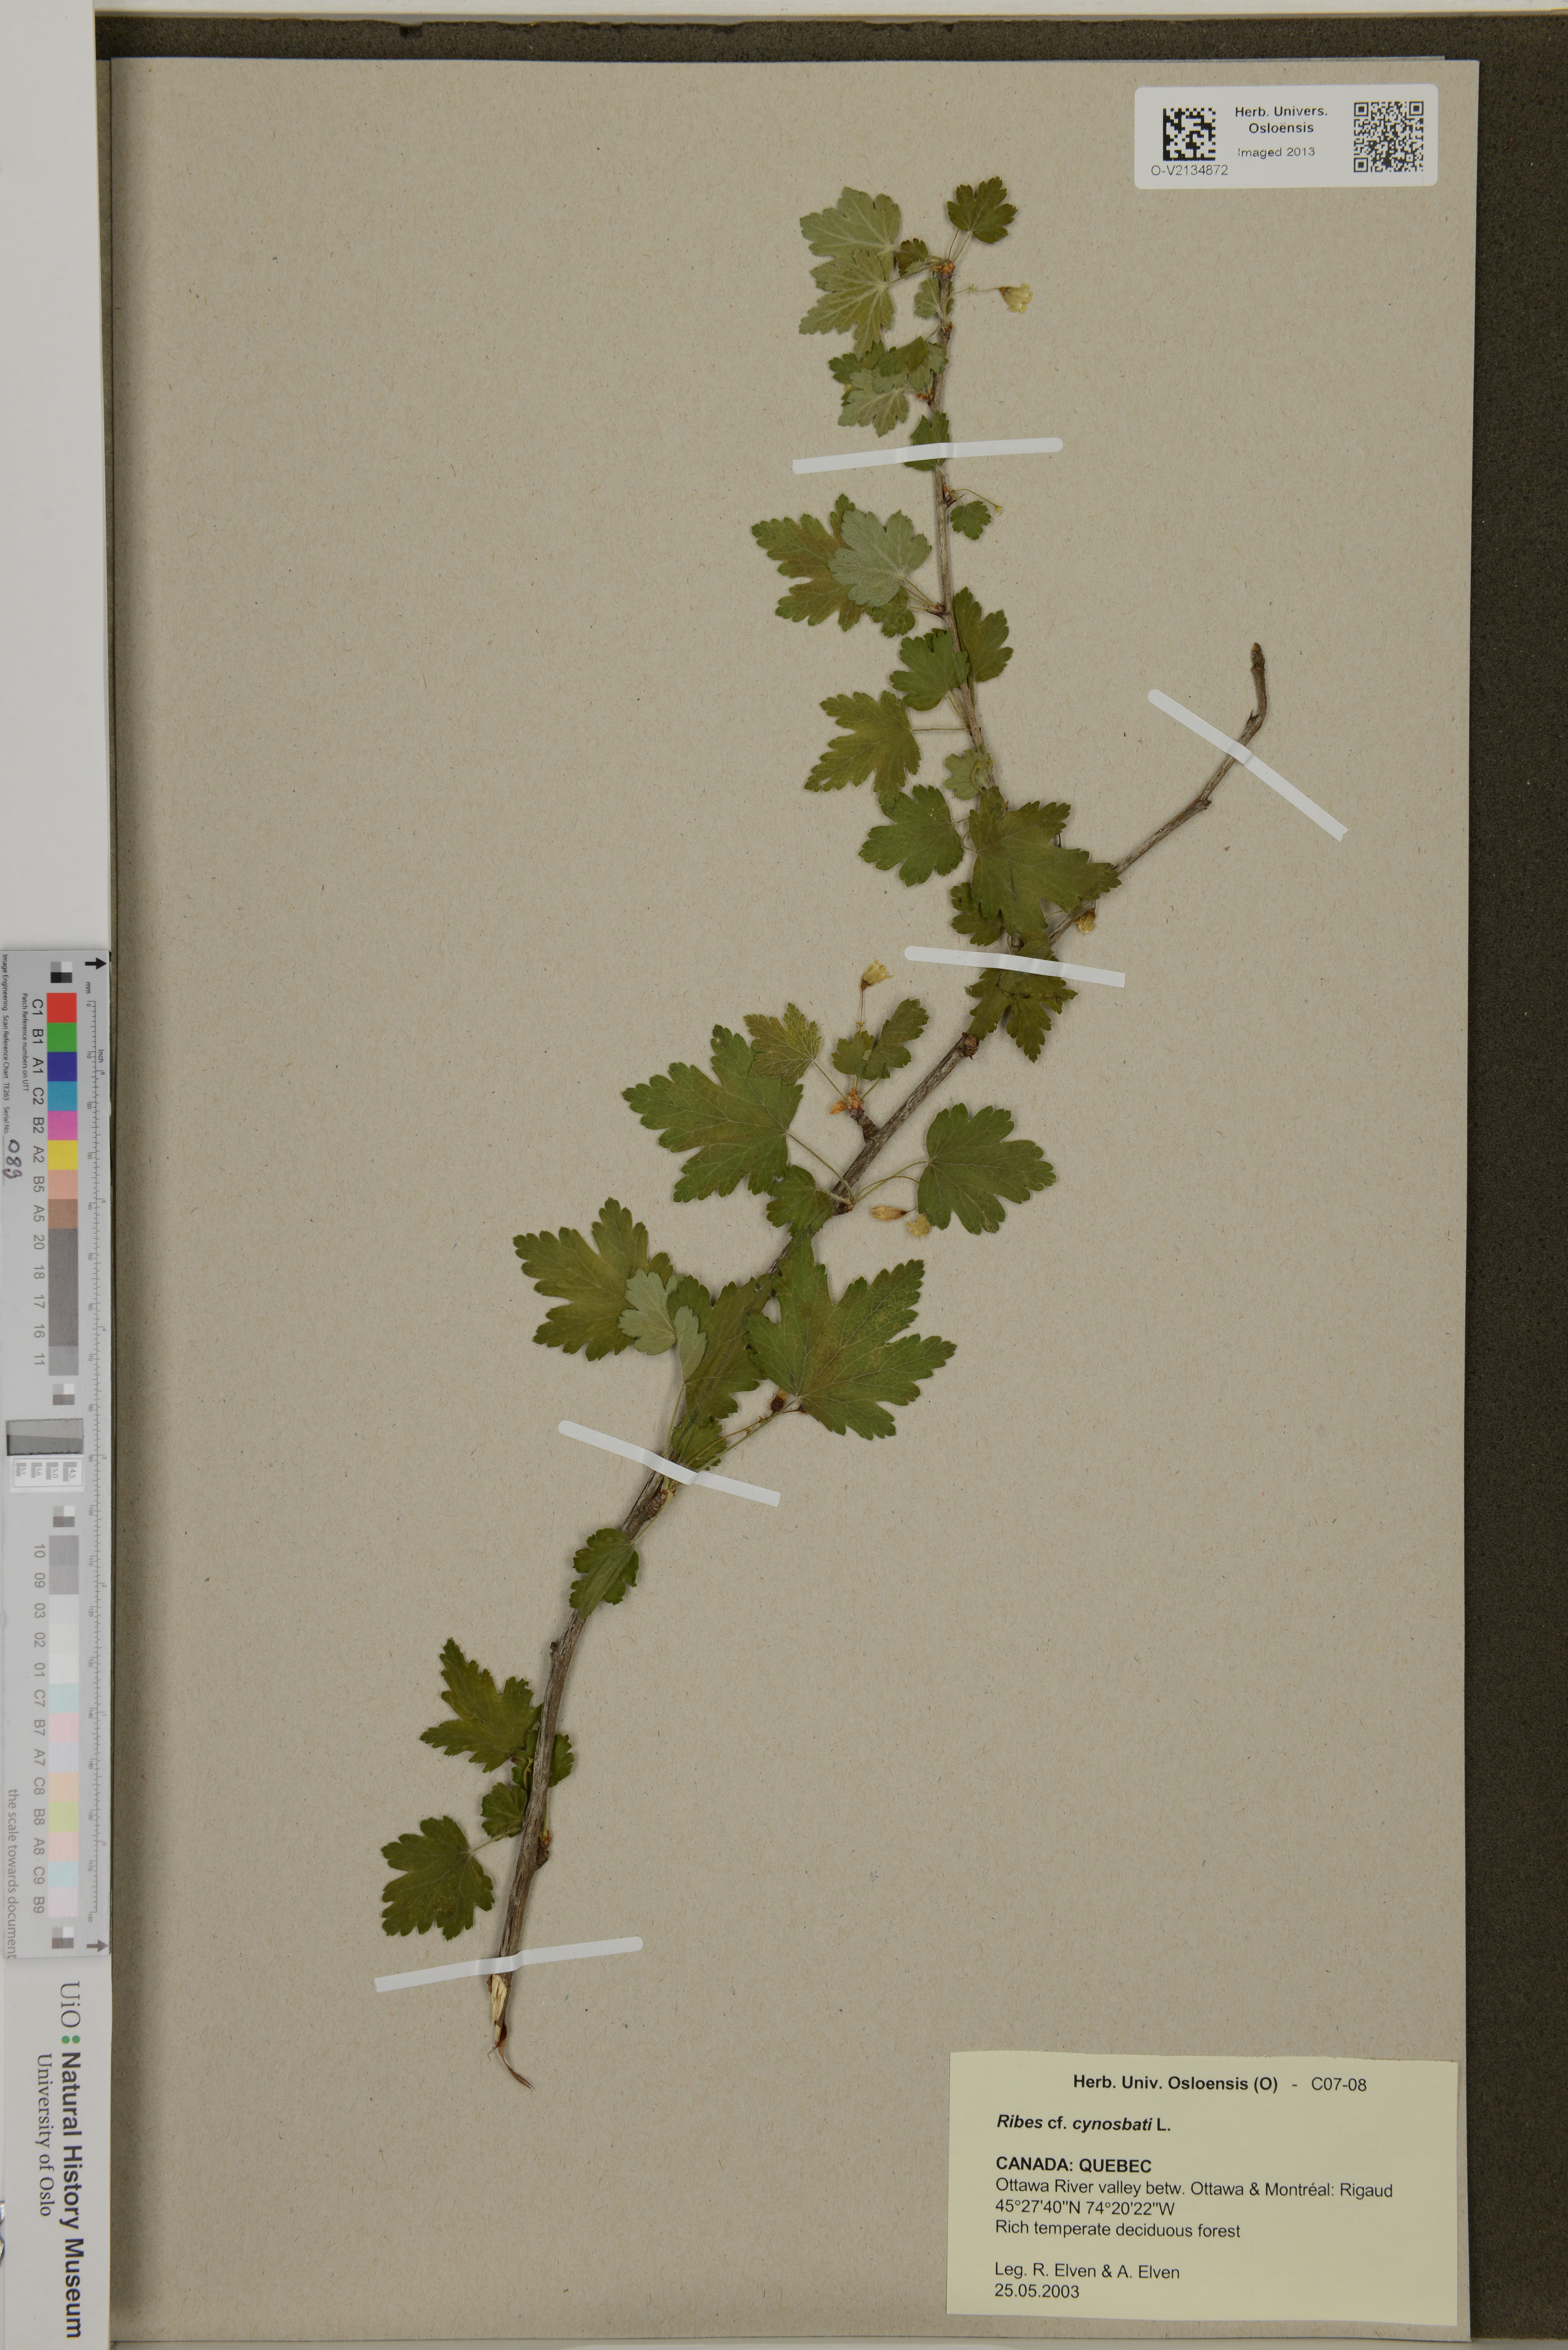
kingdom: Plantae
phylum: Tracheophyta
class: Magnoliopsida
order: Saxifragales
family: Grossulariaceae
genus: Ribes
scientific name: Ribes cynosbati
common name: American gooseberry
